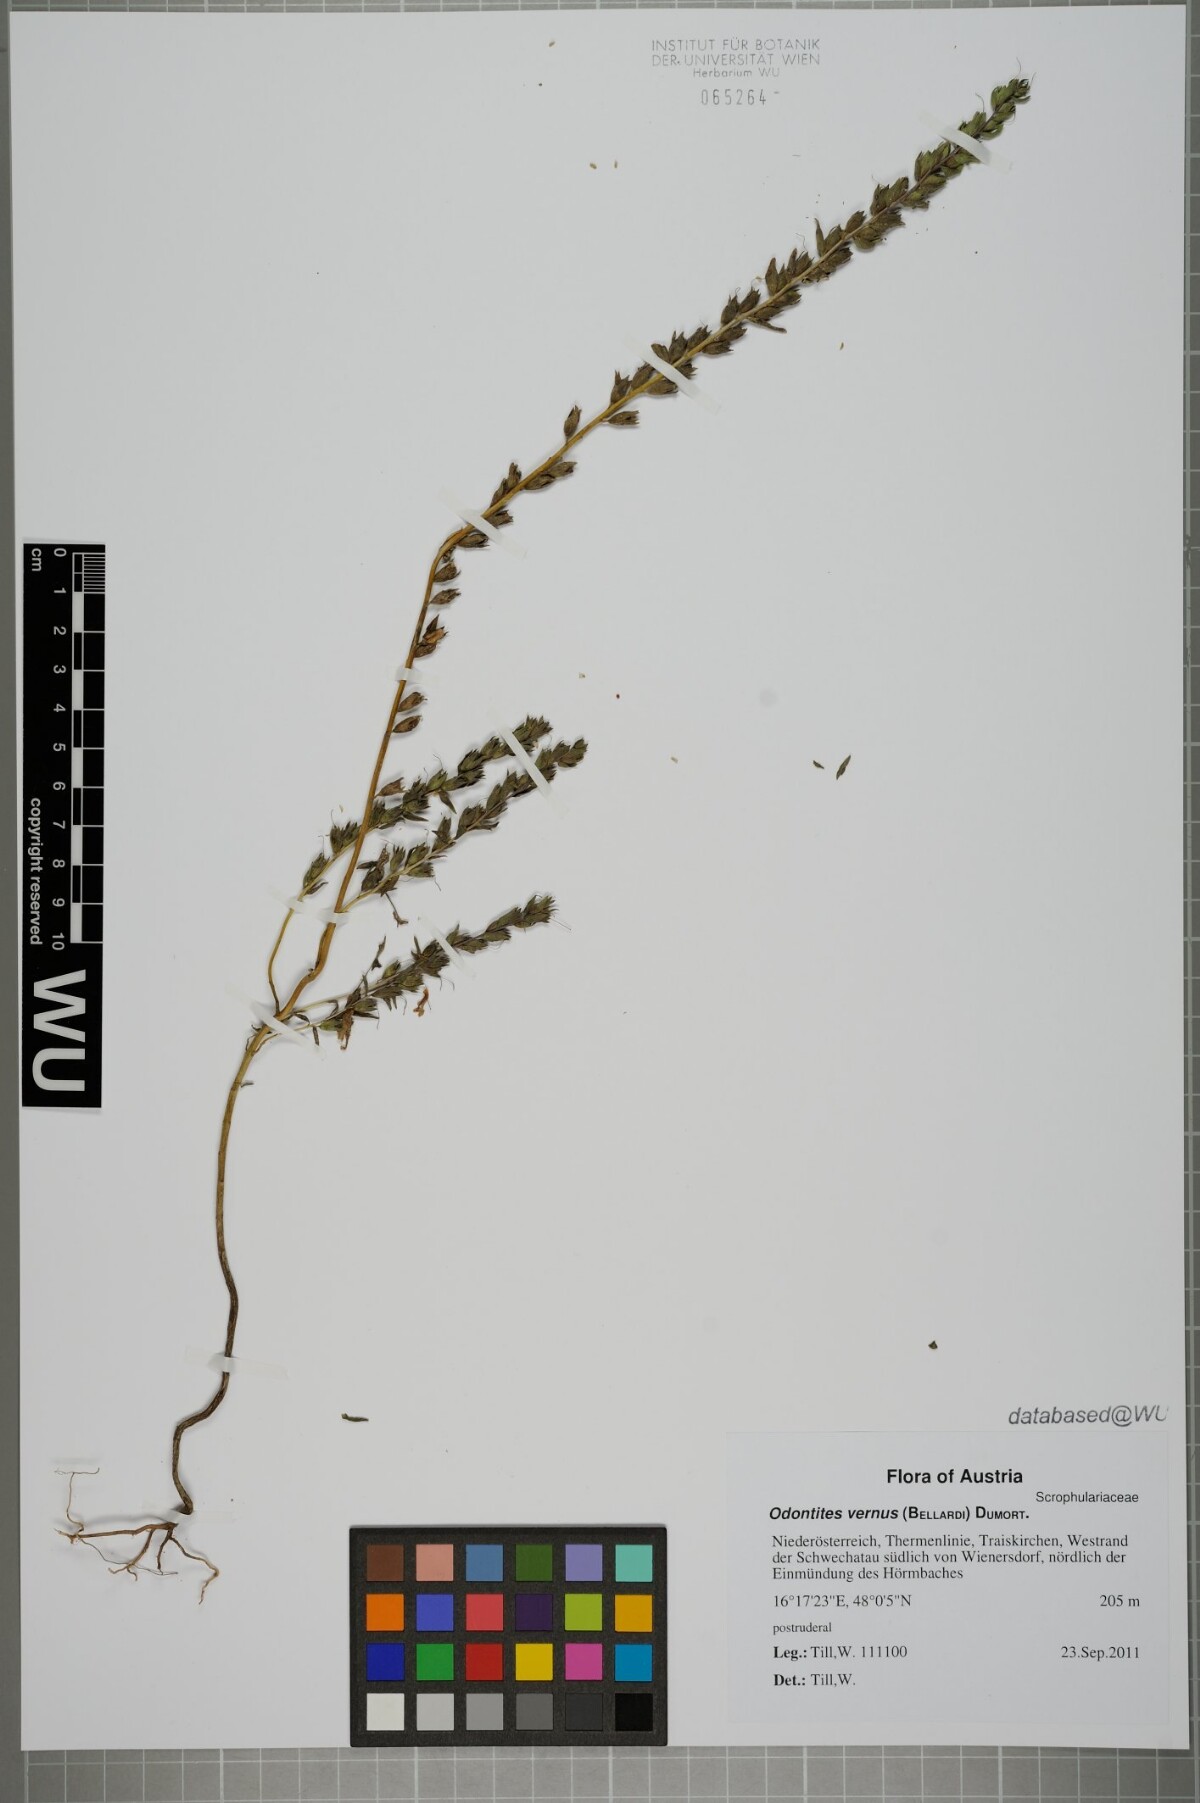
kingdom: Plantae
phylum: Tracheophyta
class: Magnoliopsida
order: Lamiales
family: Orobanchaceae
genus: Odontites
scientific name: Odontites vulgaris
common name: Broomrape
